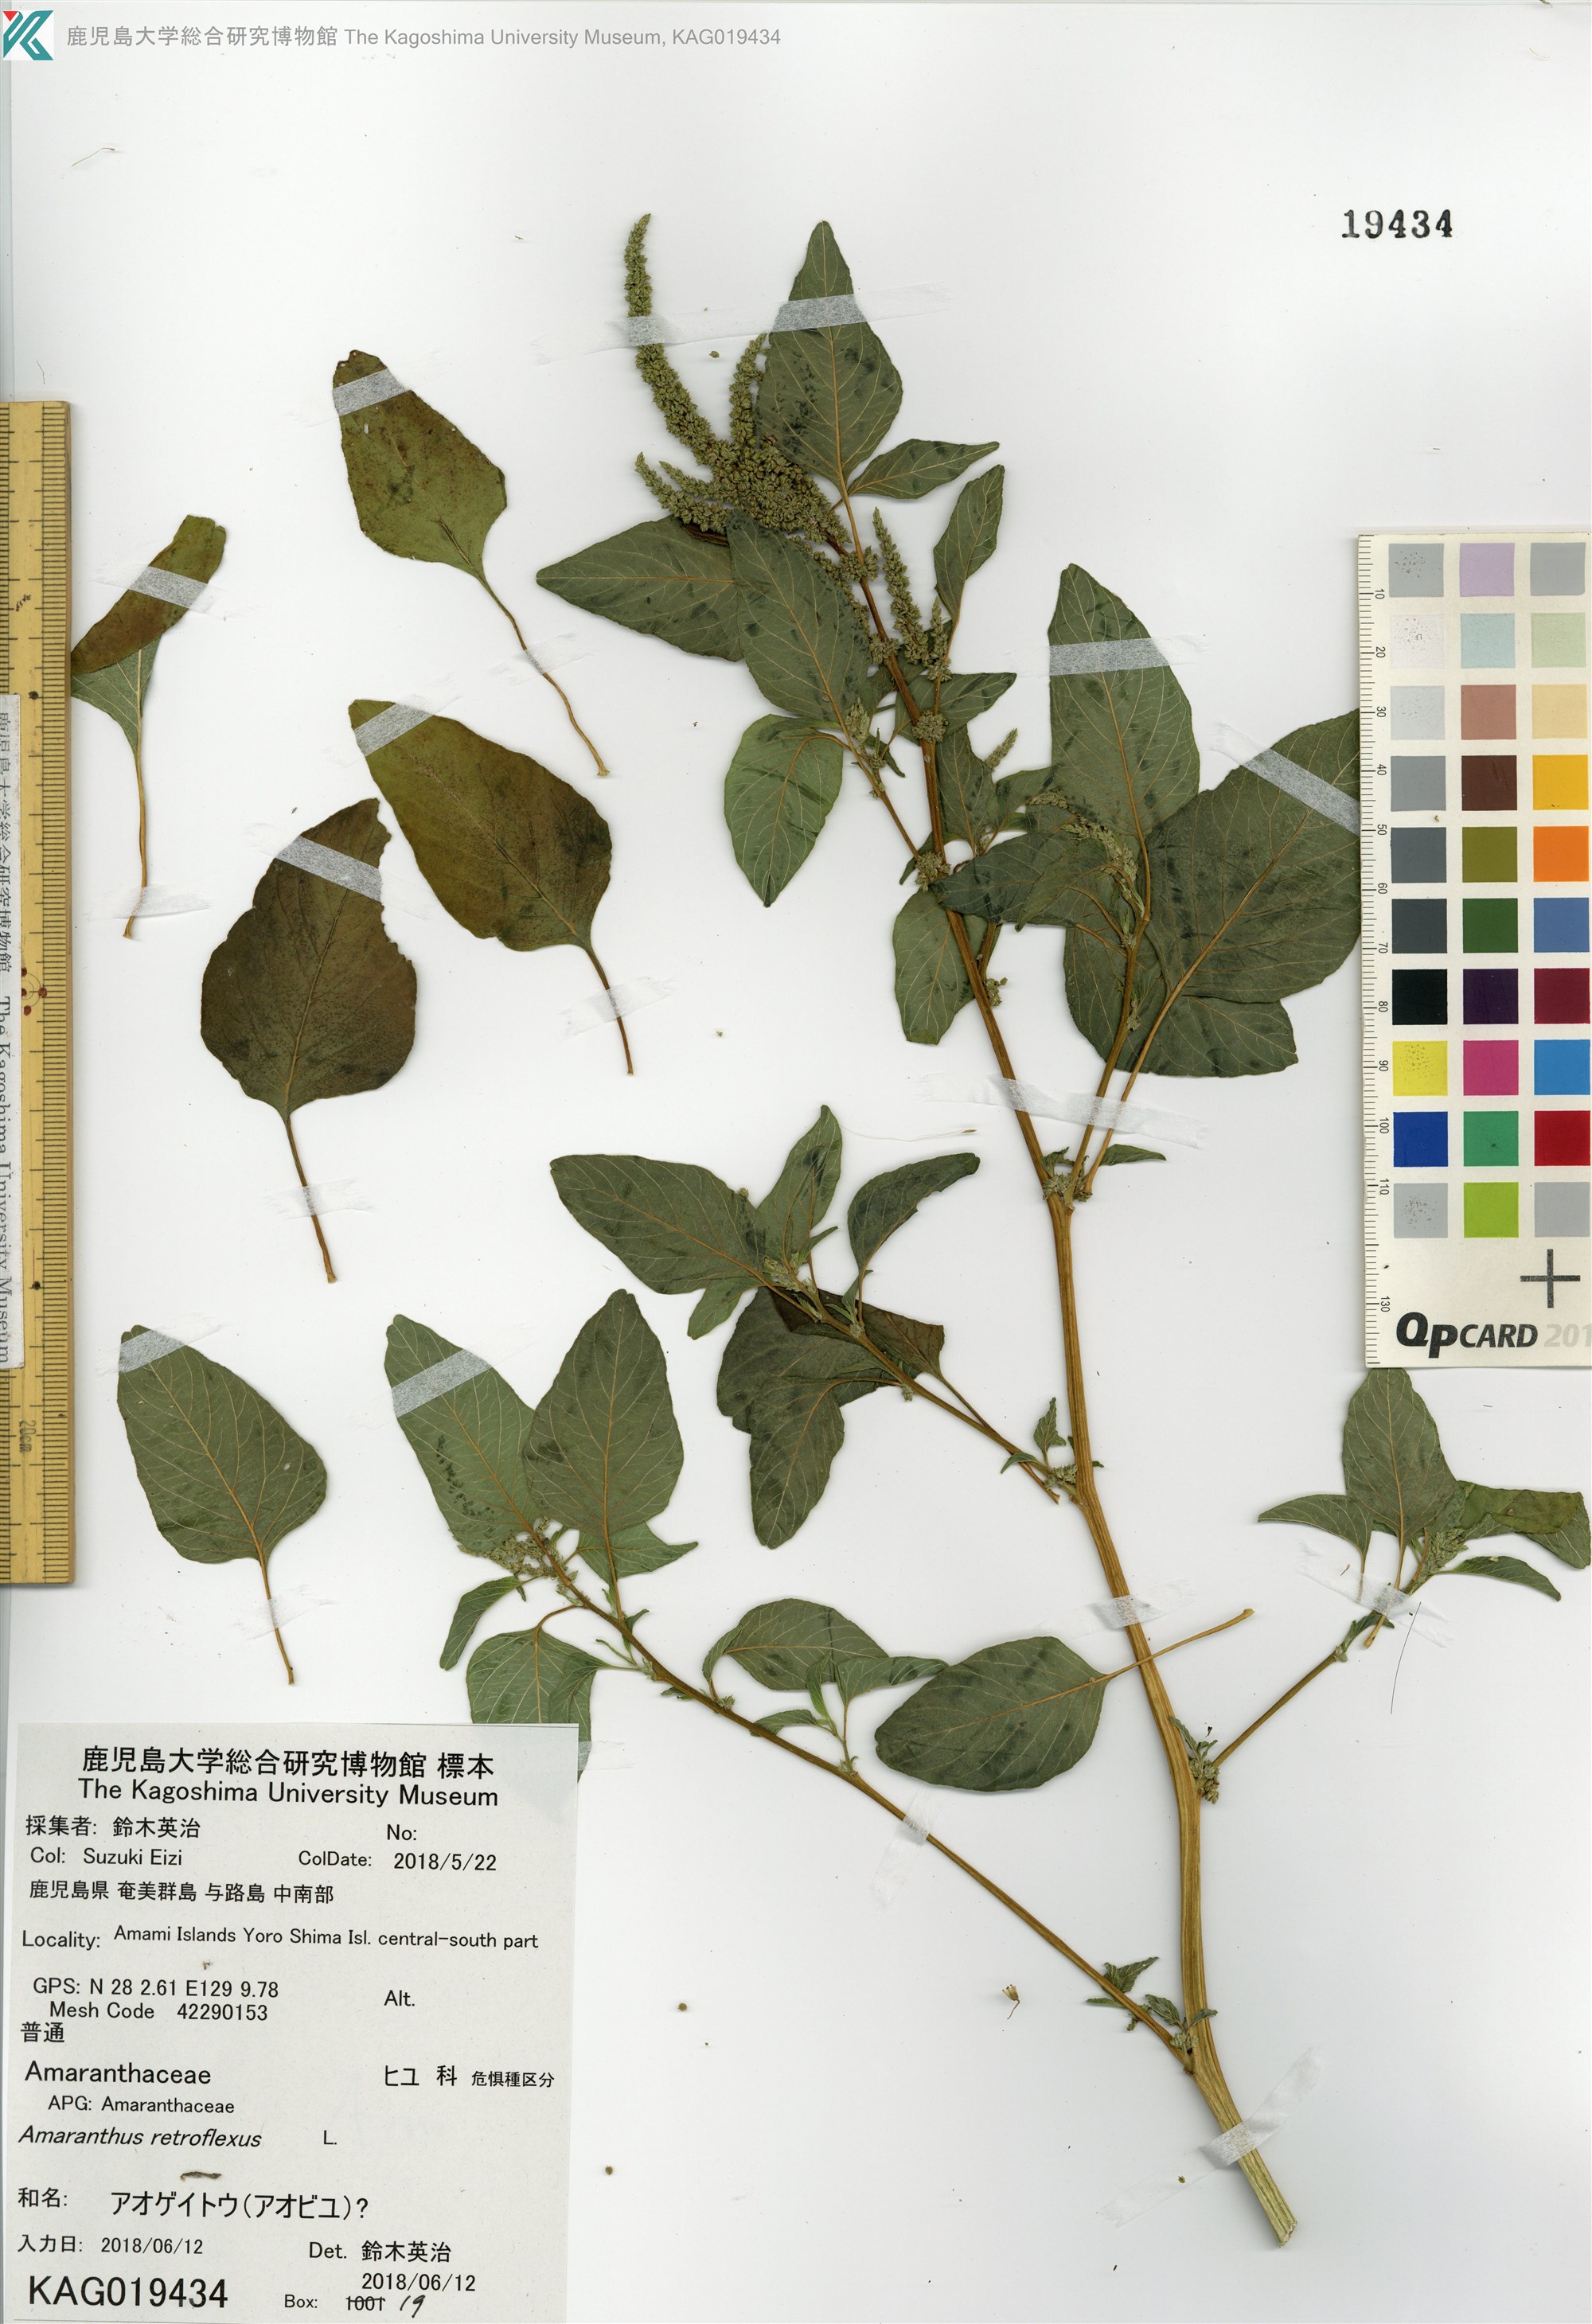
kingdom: Plantae
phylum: Tracheophyta
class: Magnoliopsida
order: Caryophyllales
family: Amaranthaceae
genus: Amaranthus
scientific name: Amaranthus retroflexus
